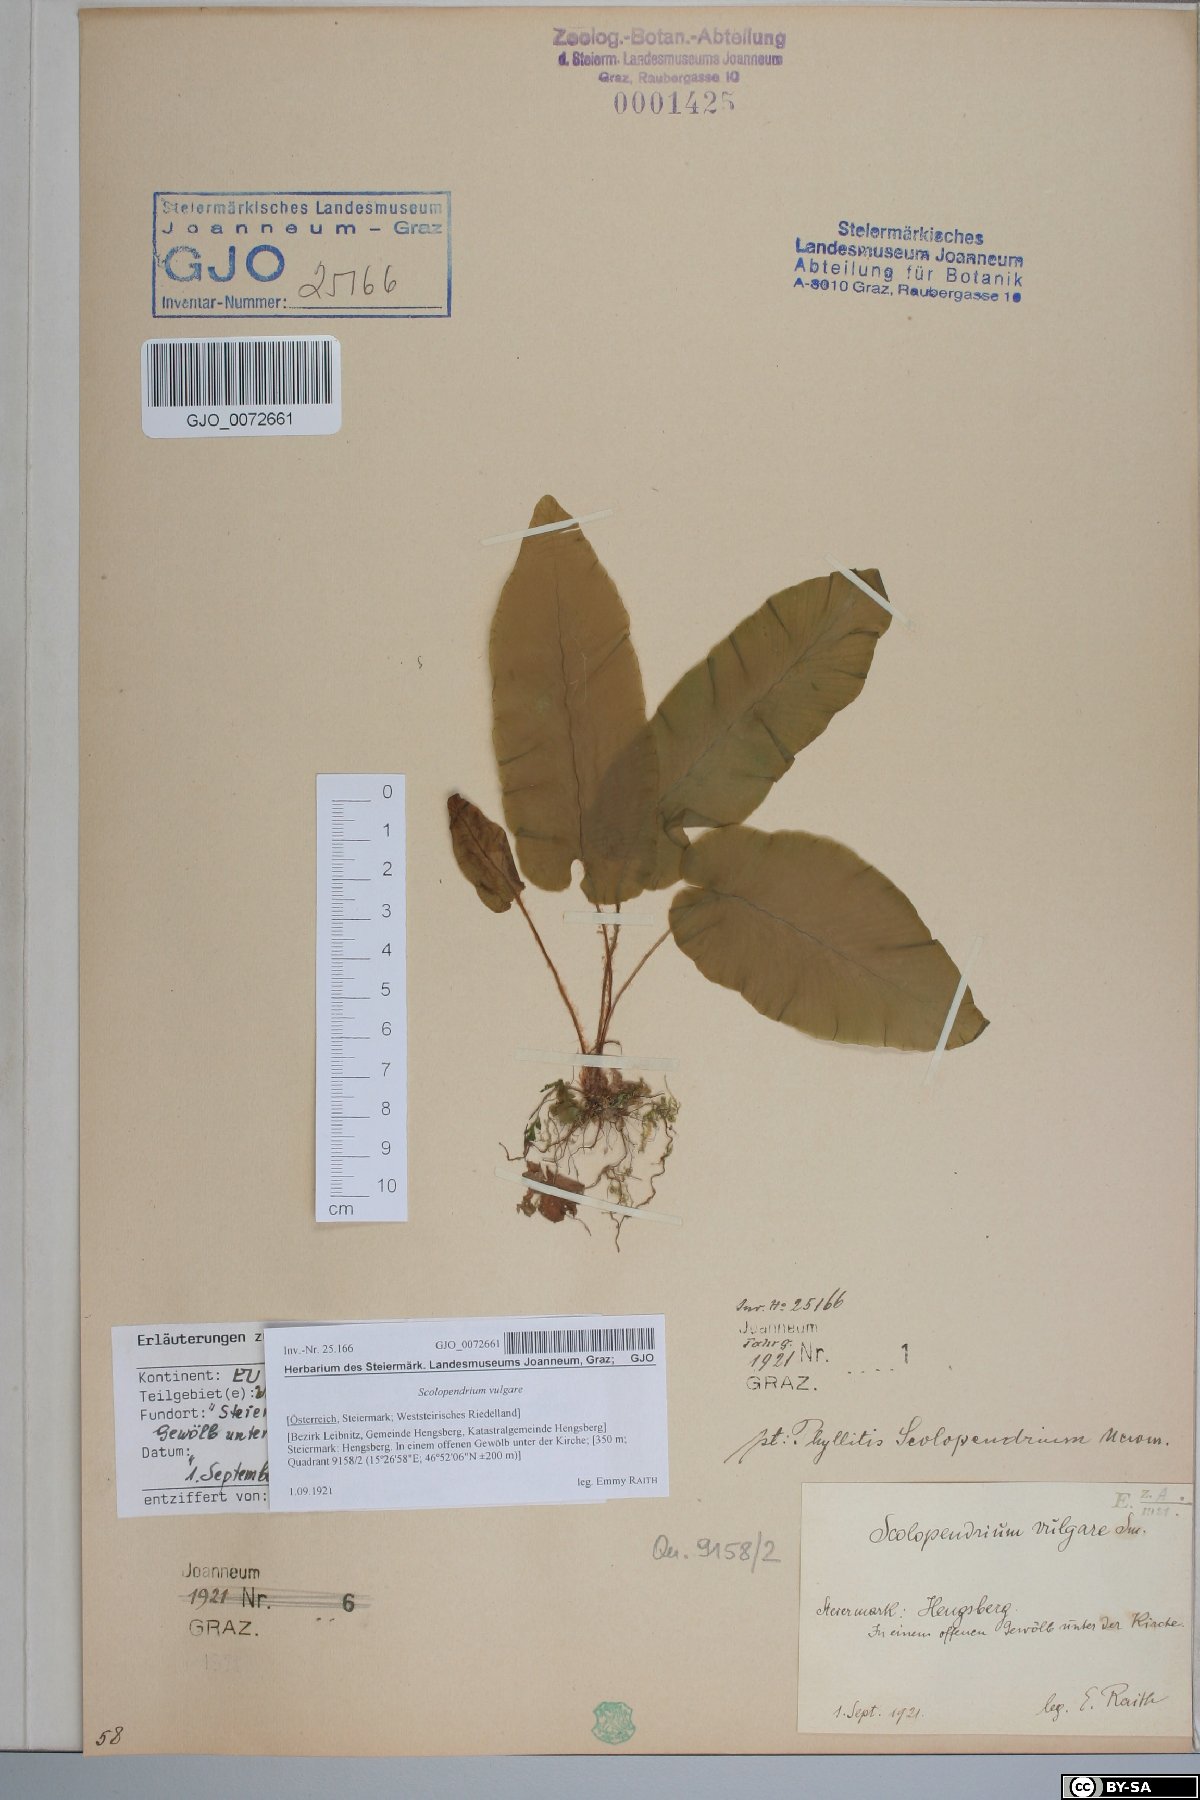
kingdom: Plantae
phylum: Tracheophyta
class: Polypodiopsida
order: Polypodiales
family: Aspleniaceae
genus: Asplenium
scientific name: Asplenium scolopendrium
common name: Hart's-tongue fern
